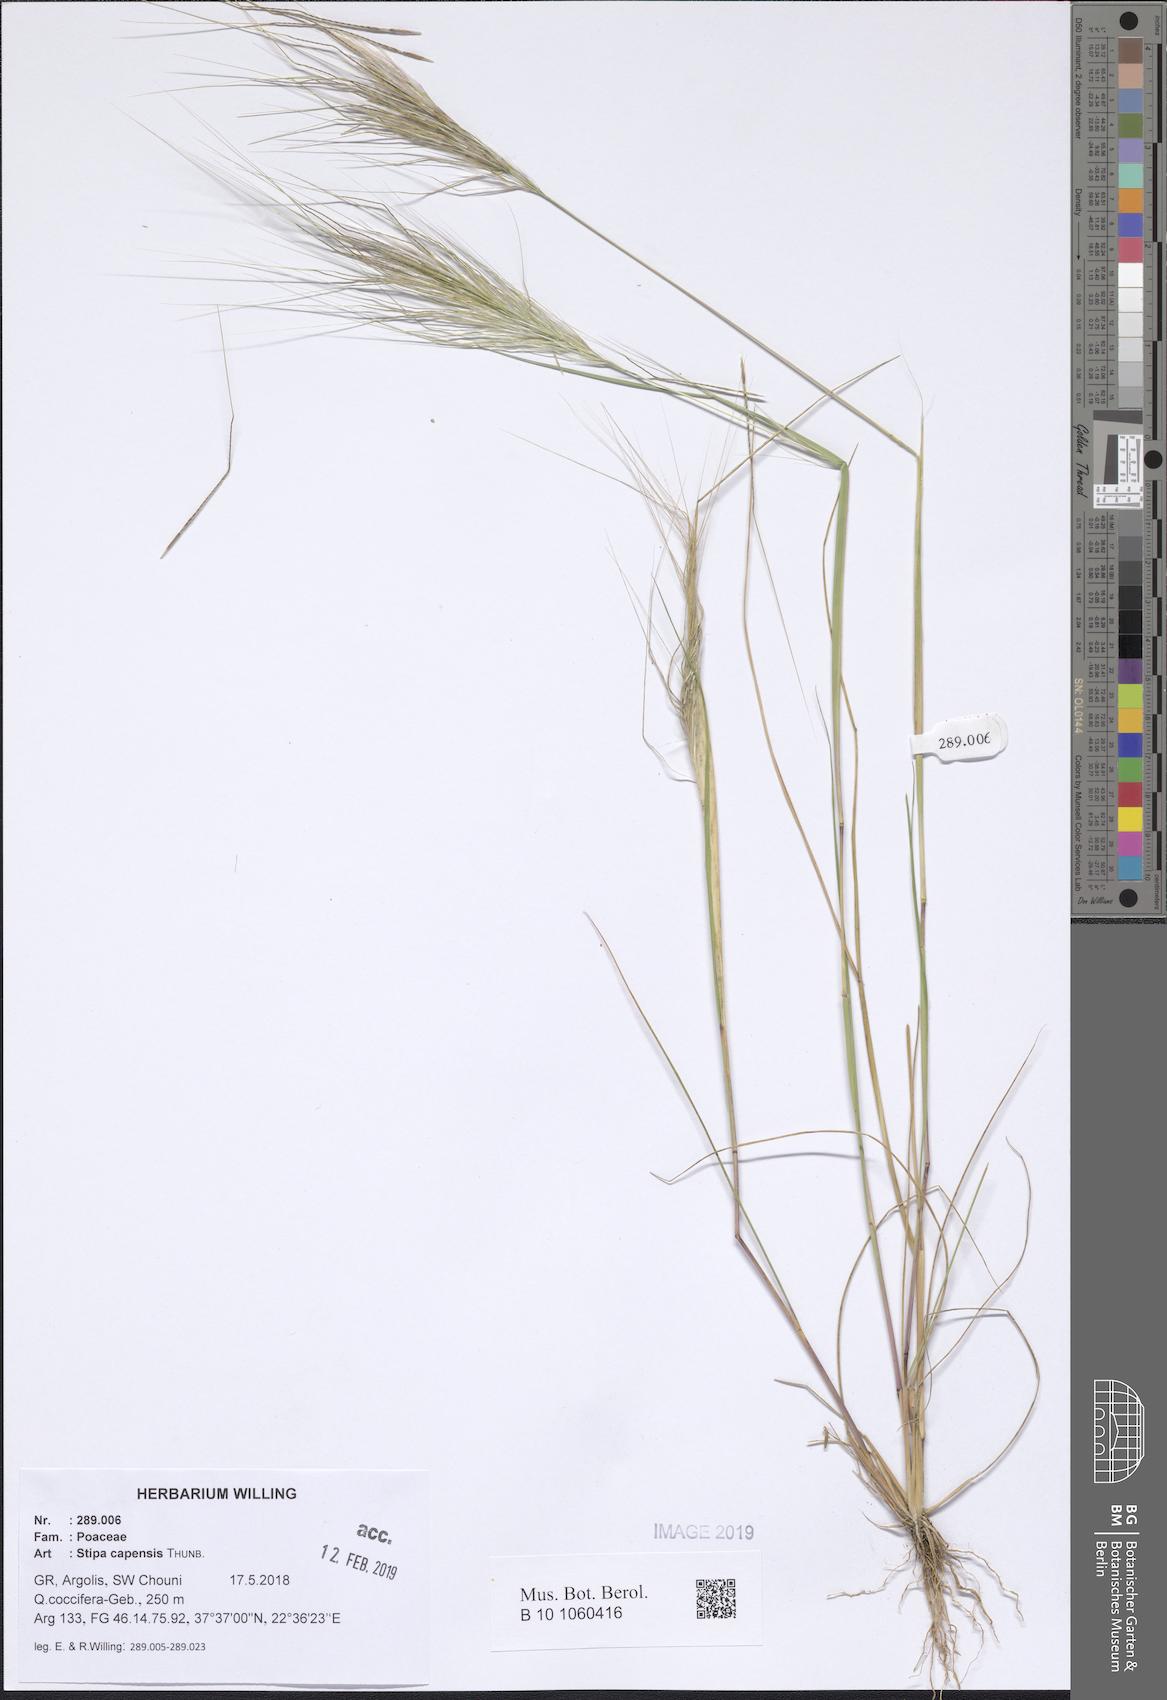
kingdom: Plantae
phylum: Tracheophyta
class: Liliopsida
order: Poales
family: Poaceae
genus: Stipellula
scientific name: Stipellula capensis
